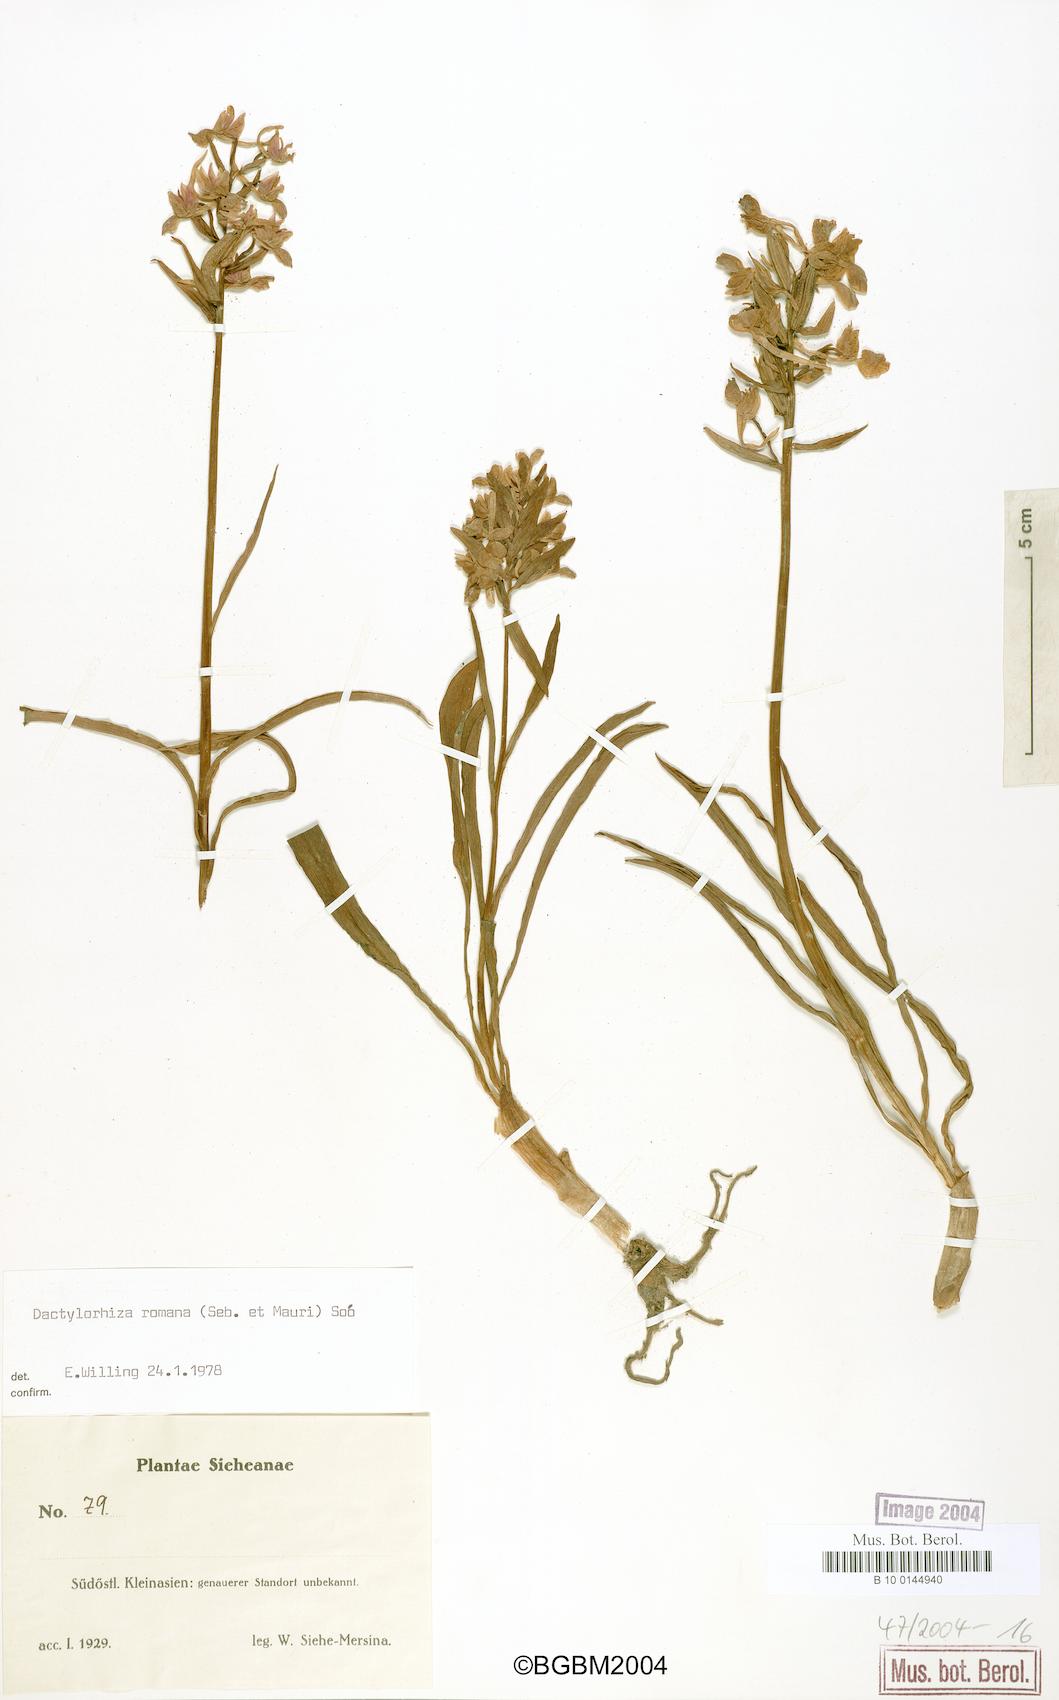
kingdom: Plantae
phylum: Tracheophyta
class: Liliopsida
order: Asparagales
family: Orchidaceae
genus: Dactylorhiza
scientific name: Dactylorhiza romana
